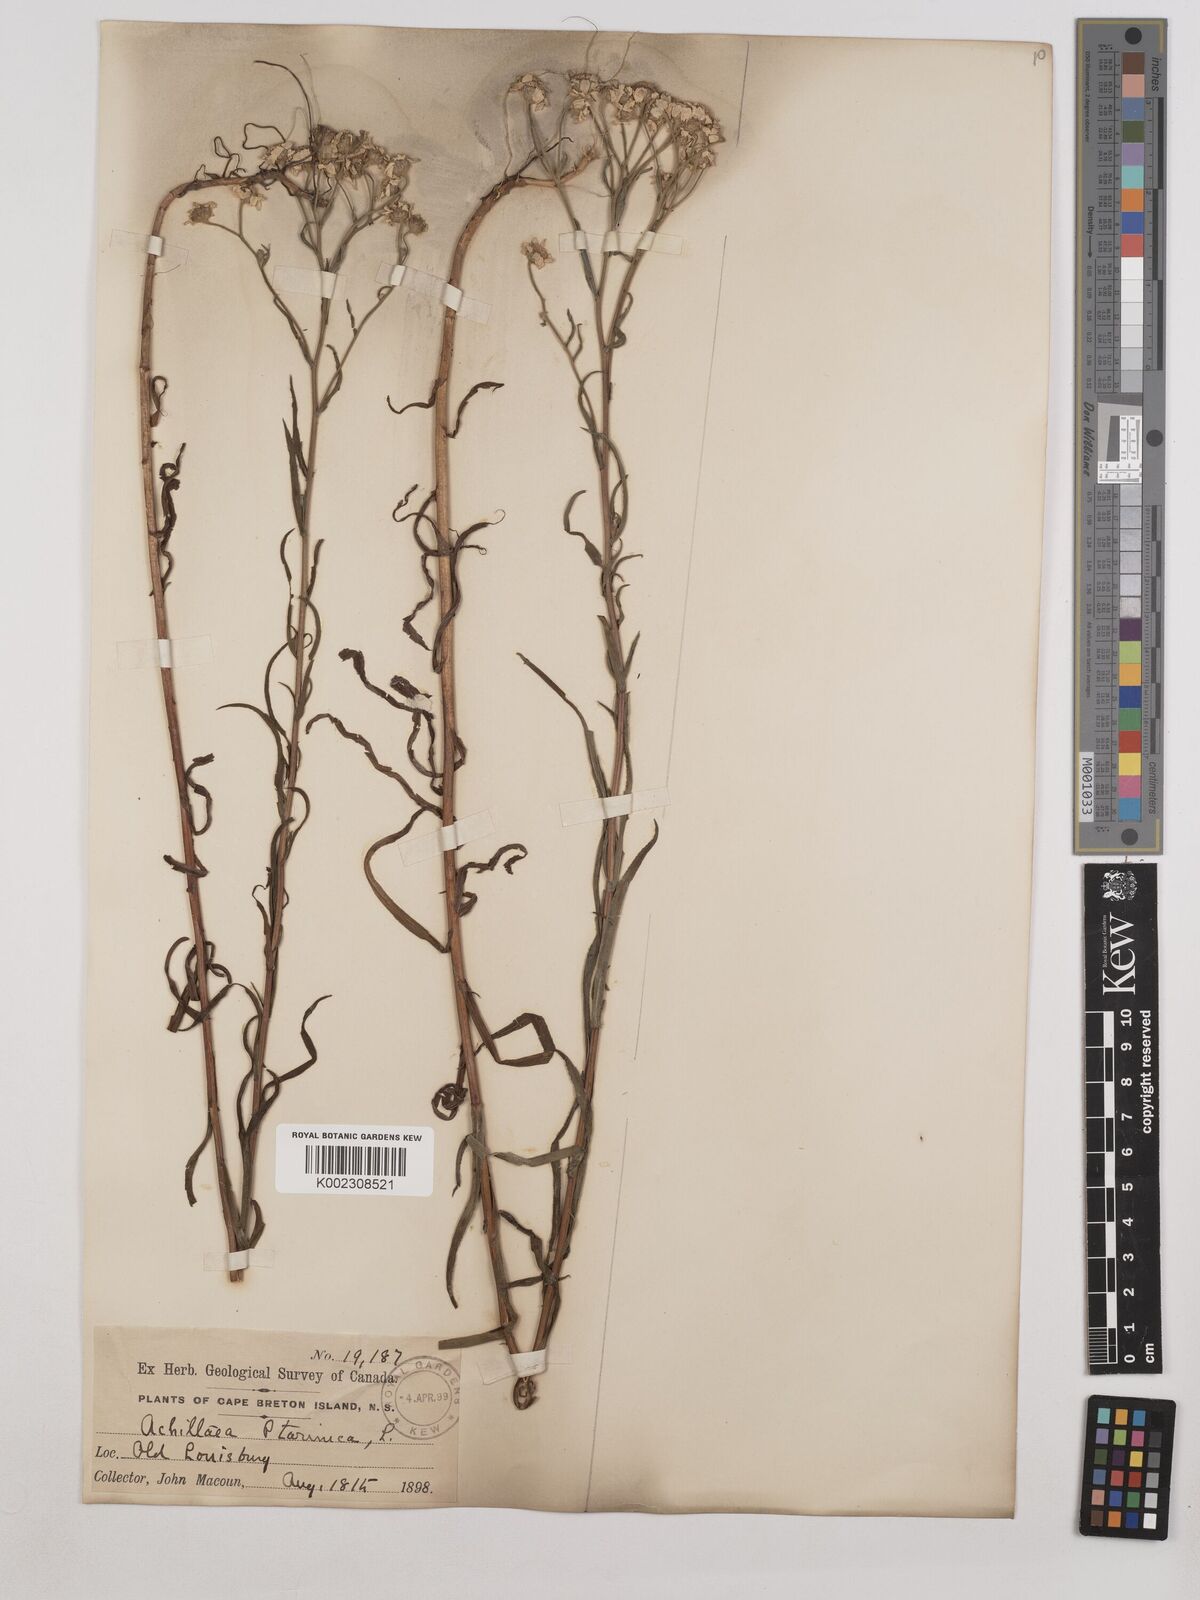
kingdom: Plantae
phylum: Tracheophyta
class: Magnoliopsida
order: Asterales
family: Asteraceae
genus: Achillea
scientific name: Achillea ptarmica
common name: Sneezeweed
